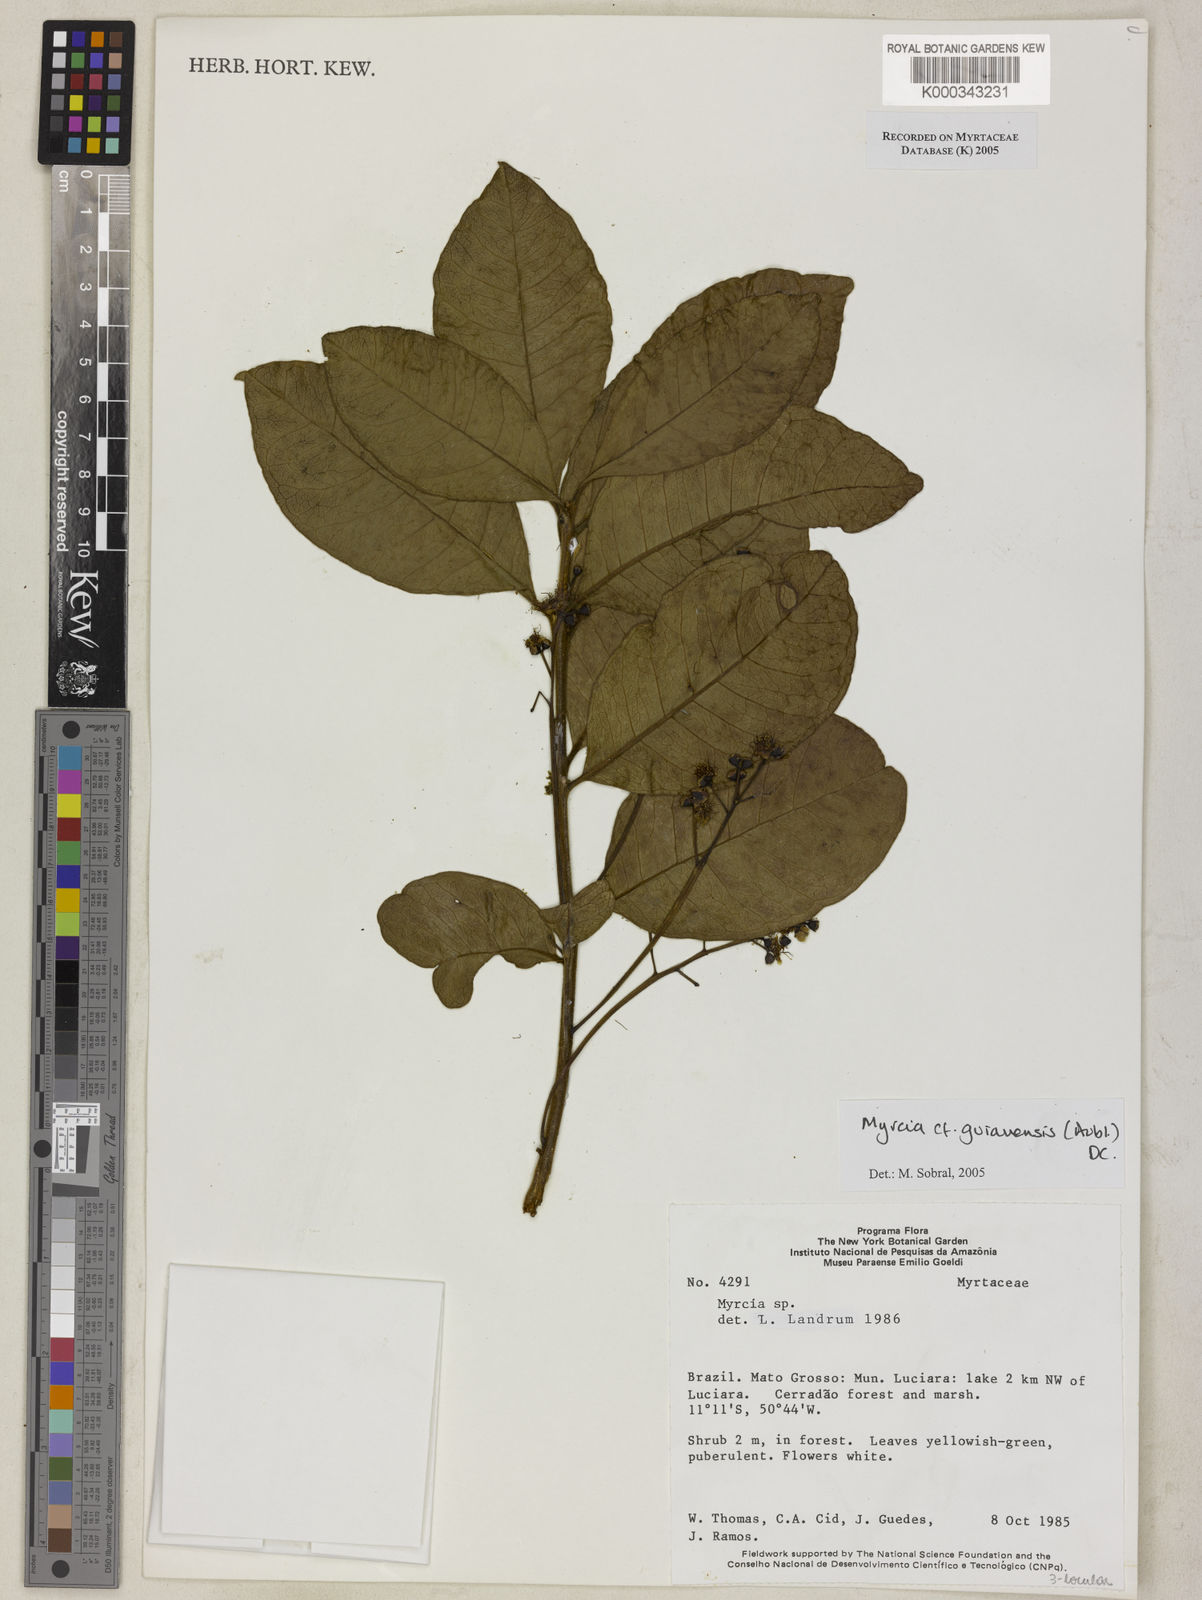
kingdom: Plantae
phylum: Tracheophyta
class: Magnoliopsida
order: Myrtales
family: Myrtaceae
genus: Myrcia
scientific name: Myrcia guianensis
